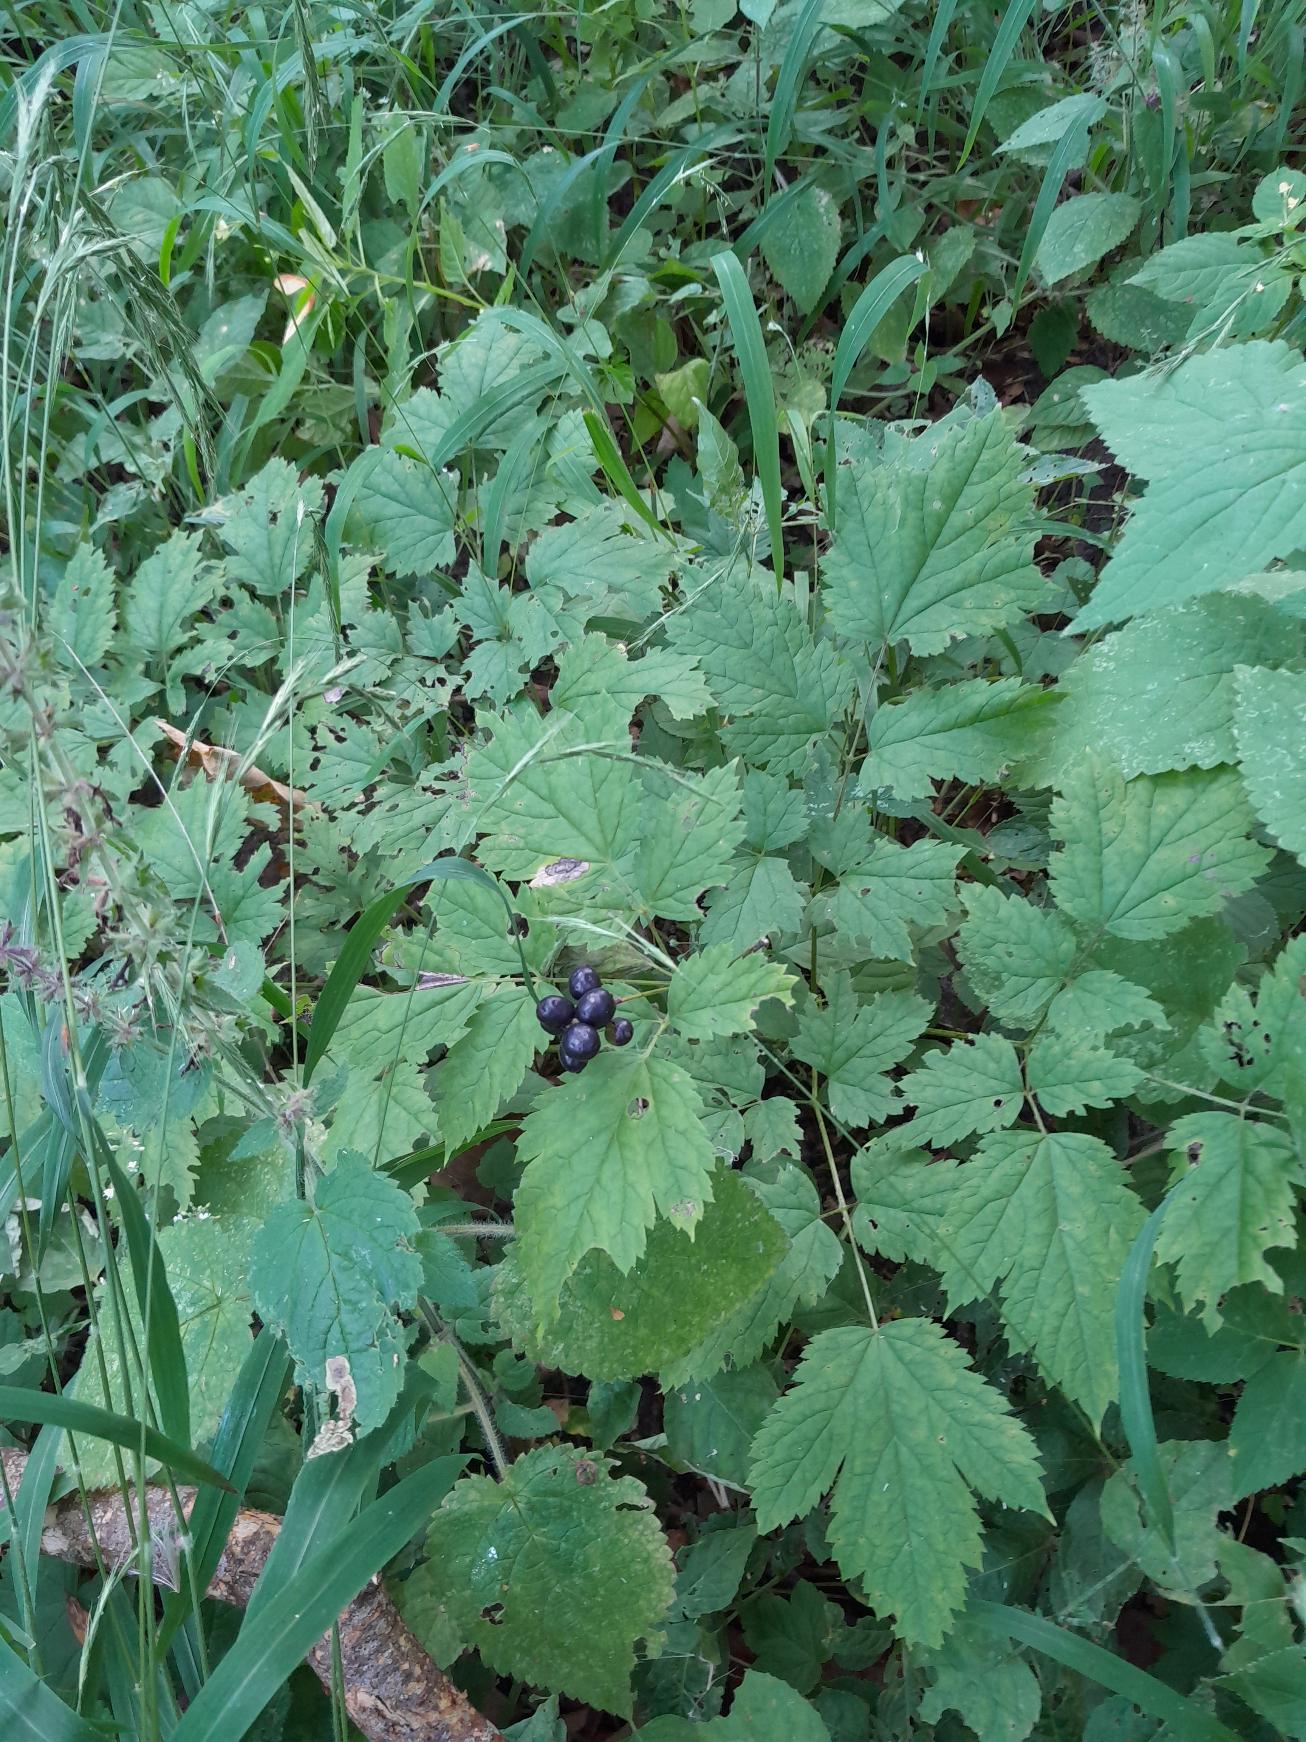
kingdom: Plantae
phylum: Tracheophyta
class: Magnoliopsida
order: Ranunculales
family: Ranunculaceae
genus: Actaea
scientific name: Actaea spicata
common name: Druemunke
